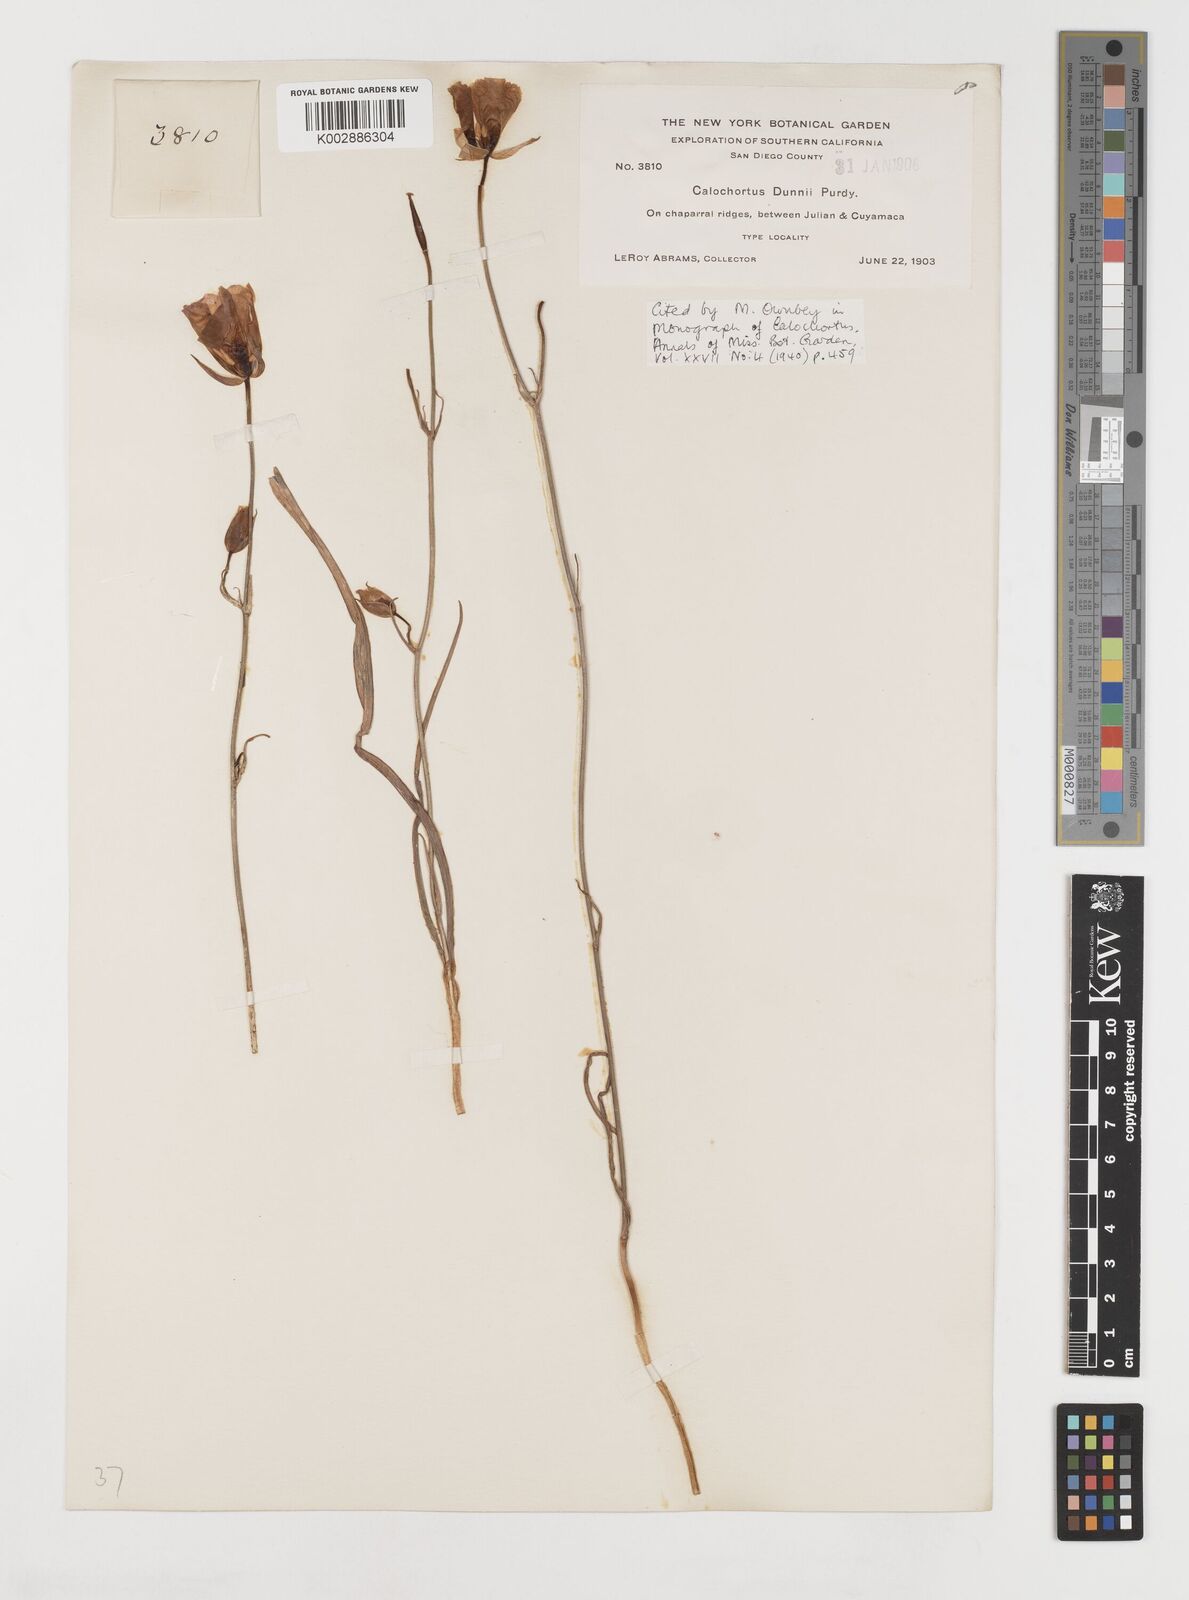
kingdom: Plantae
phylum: Tracheophyta
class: Liliopsida
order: Liliales
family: Liliaceae
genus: Calochortus
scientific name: Calochortus dunnii
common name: Dunn's mariposa-lily
